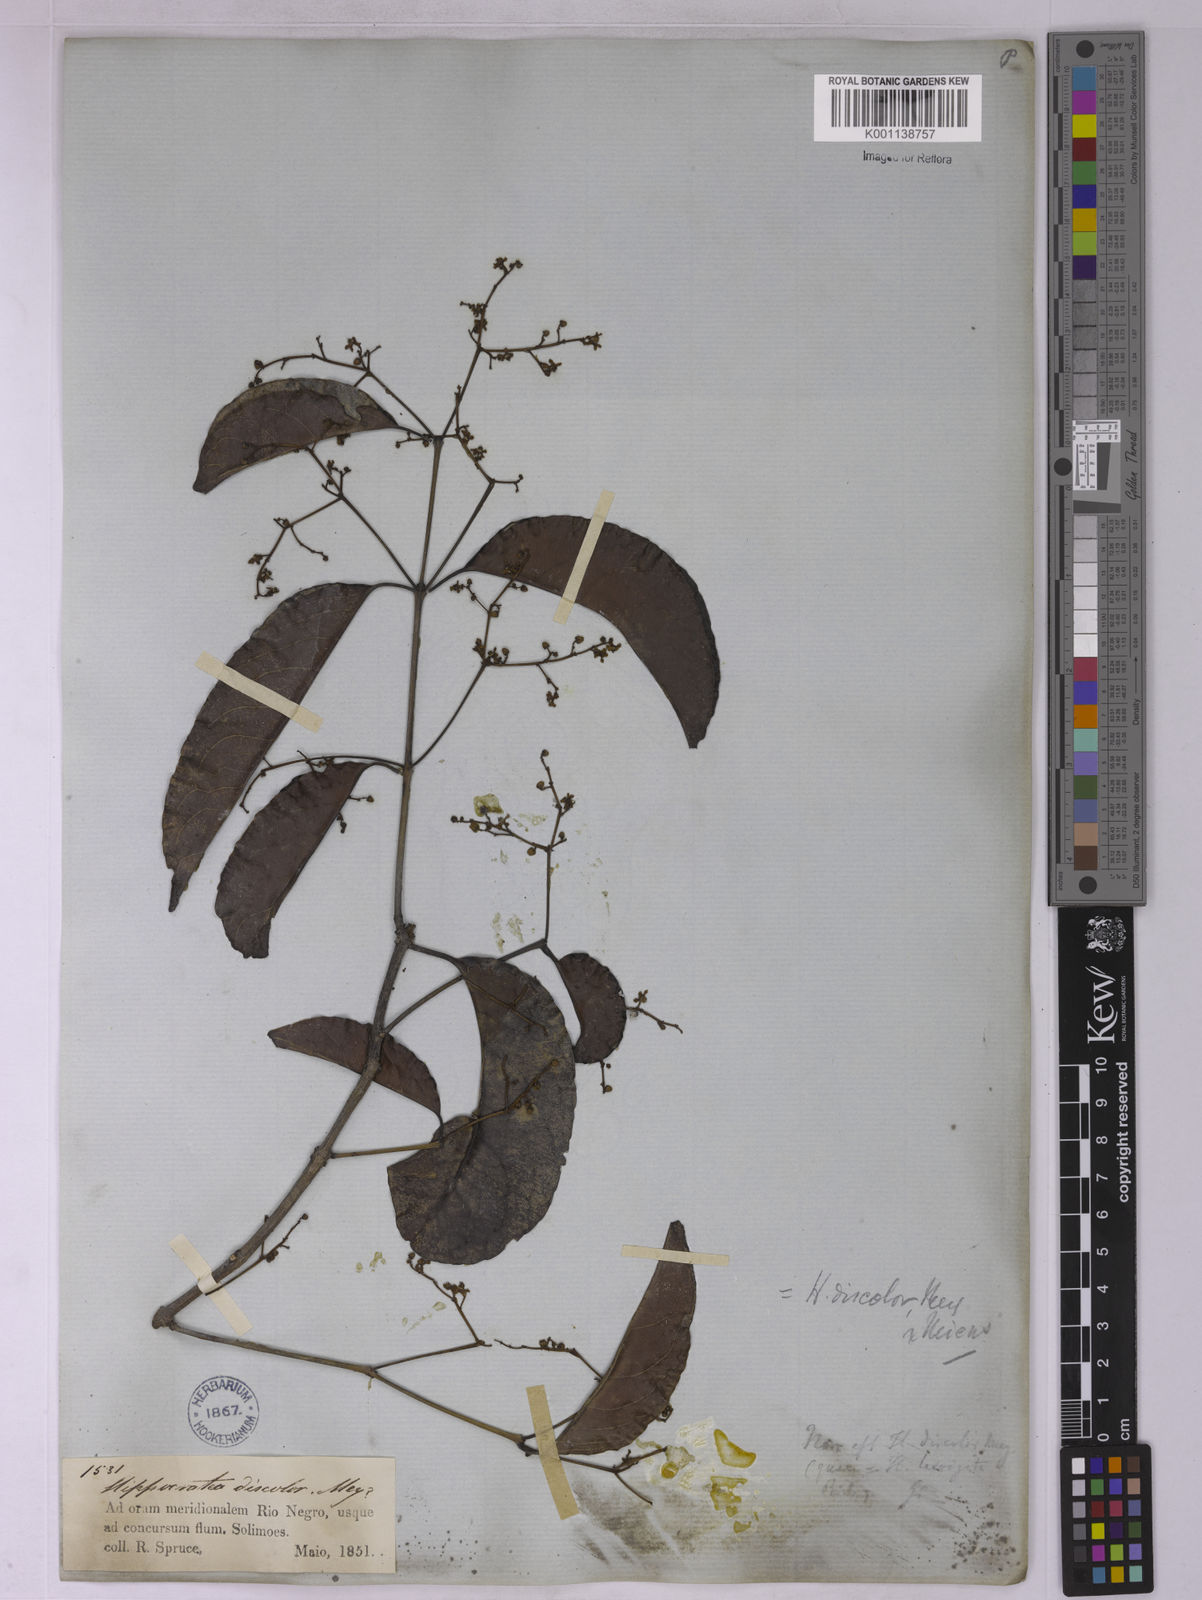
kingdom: Plantae
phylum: Tracheophyta
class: Magnoliopsida
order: Celastrales
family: Celastraceae
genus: Hippocratea
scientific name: Hippocratea volubilis
